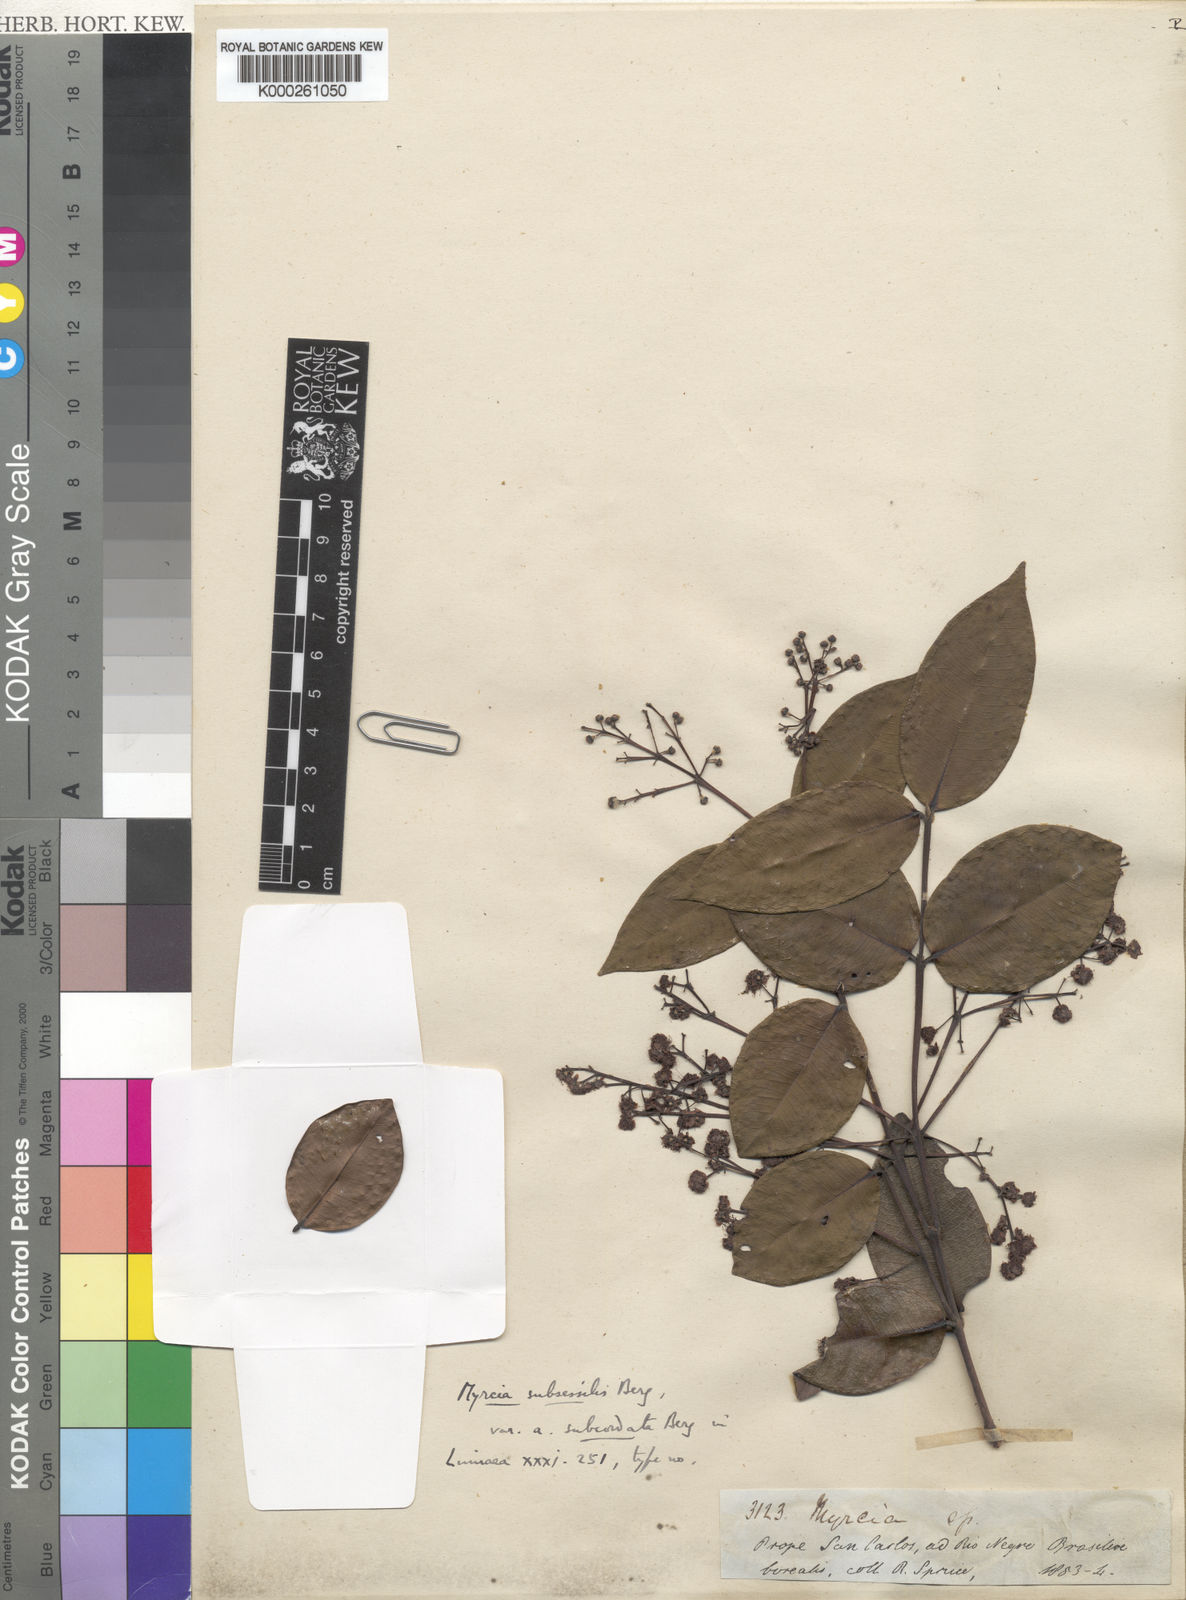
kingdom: Plantae
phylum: Tracheophyta
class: Magnoliopsida
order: Myrtales
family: Myrtaceae
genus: Myrcia
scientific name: Myrcia subsessilis
